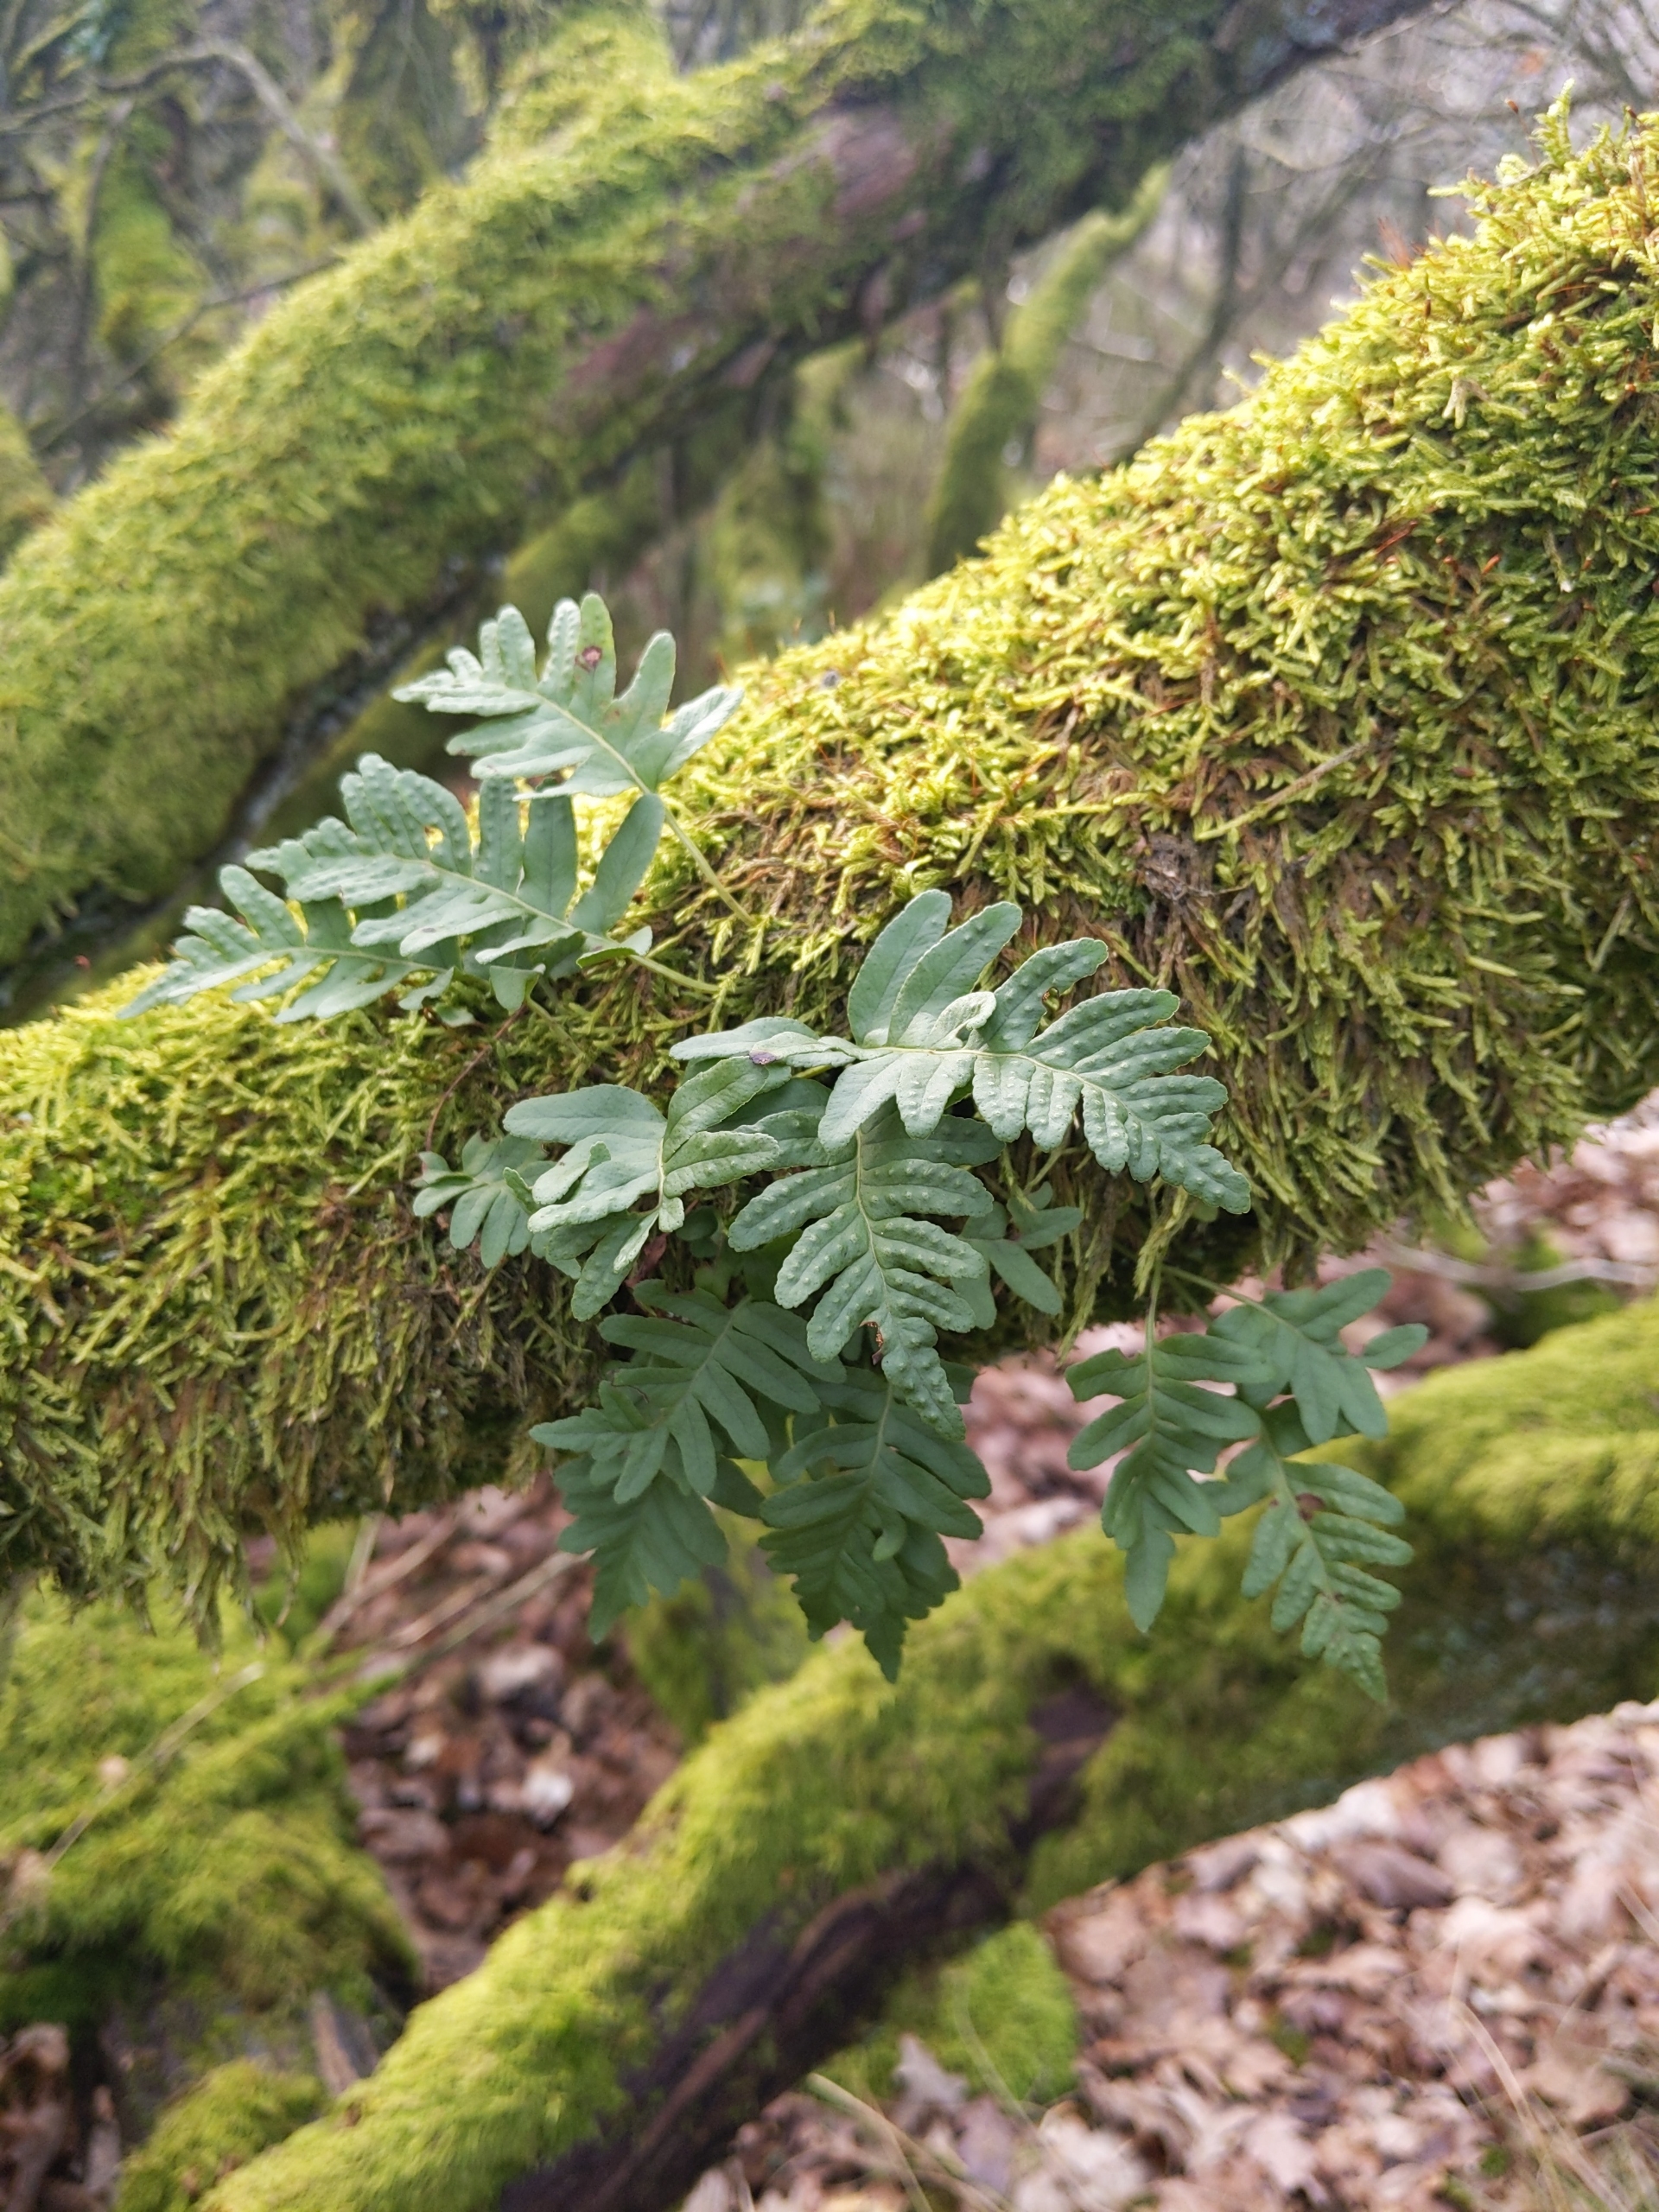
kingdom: Plantae
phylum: Tracheophyta
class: Polypodiopsida
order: Polypodiales
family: Polypodiaceae
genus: Polypodium
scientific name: Polypodium vulgare
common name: Almindelig engelsød
